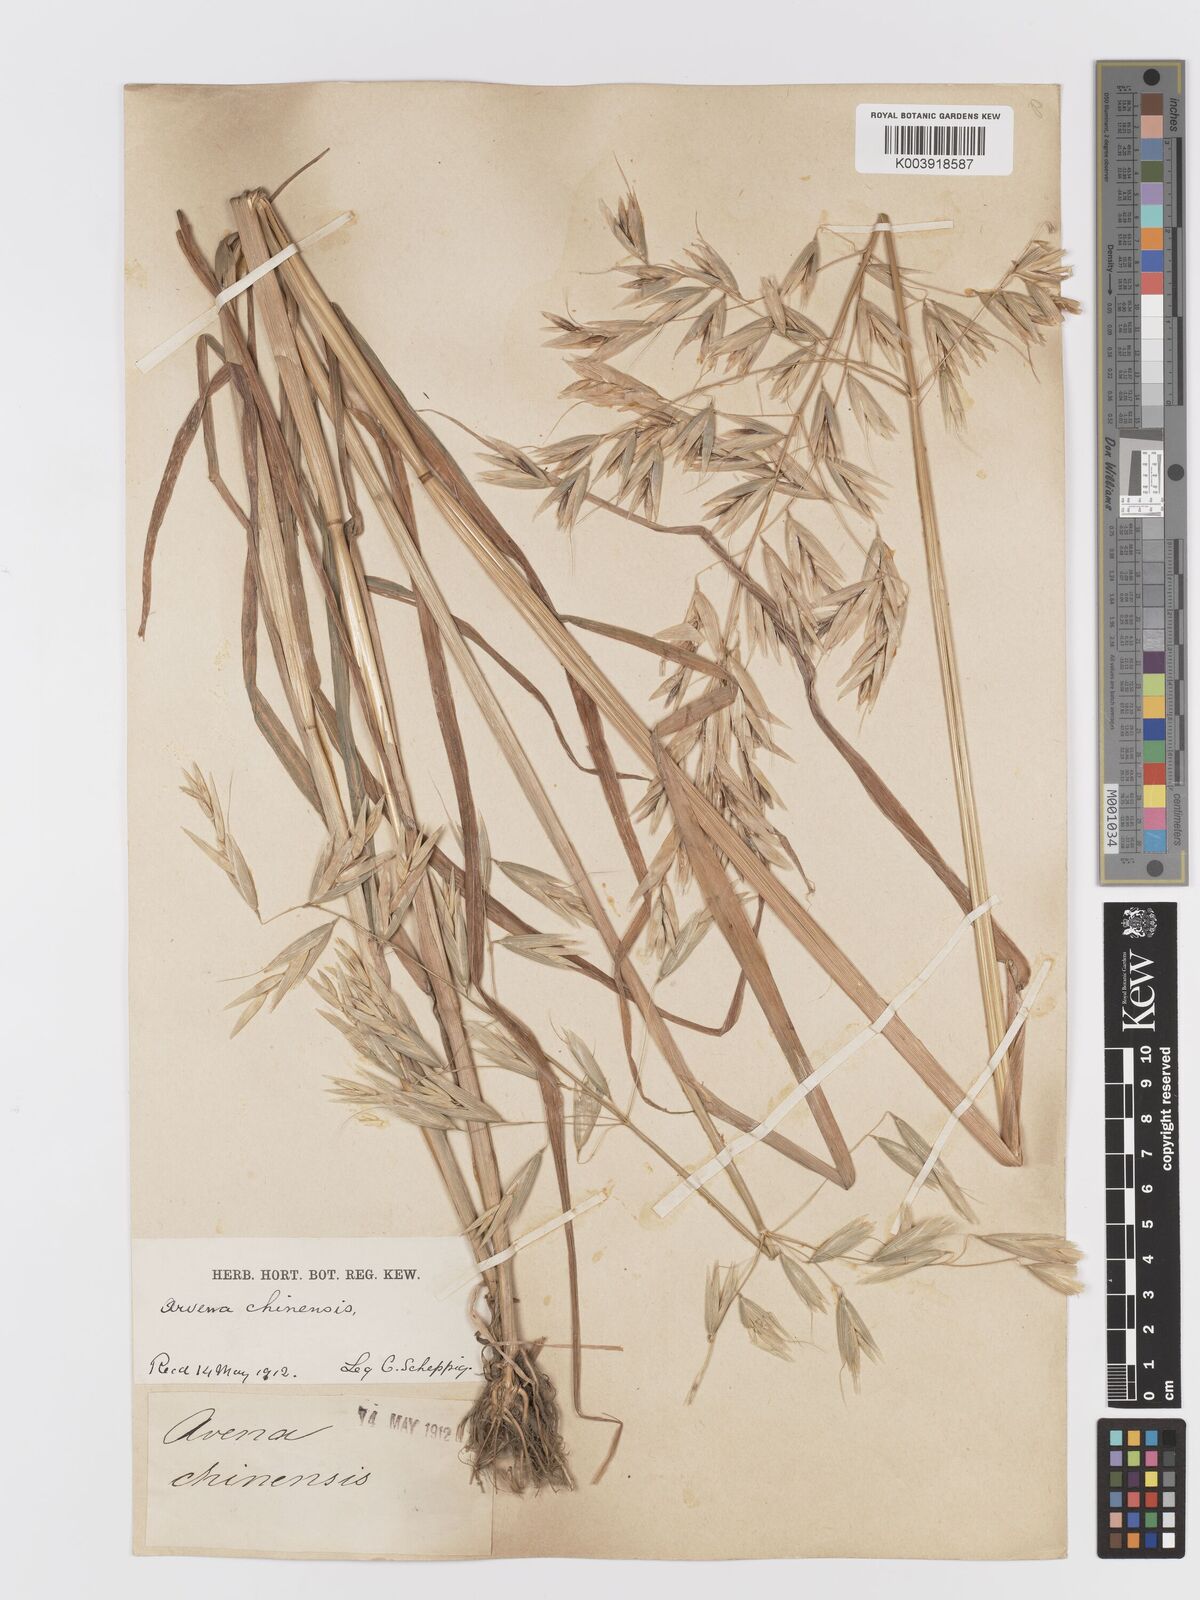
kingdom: Plantae
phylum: Tracheophyta
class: Liliopsida
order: Poales
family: Poaceae
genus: Avena
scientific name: Avena chinensis
